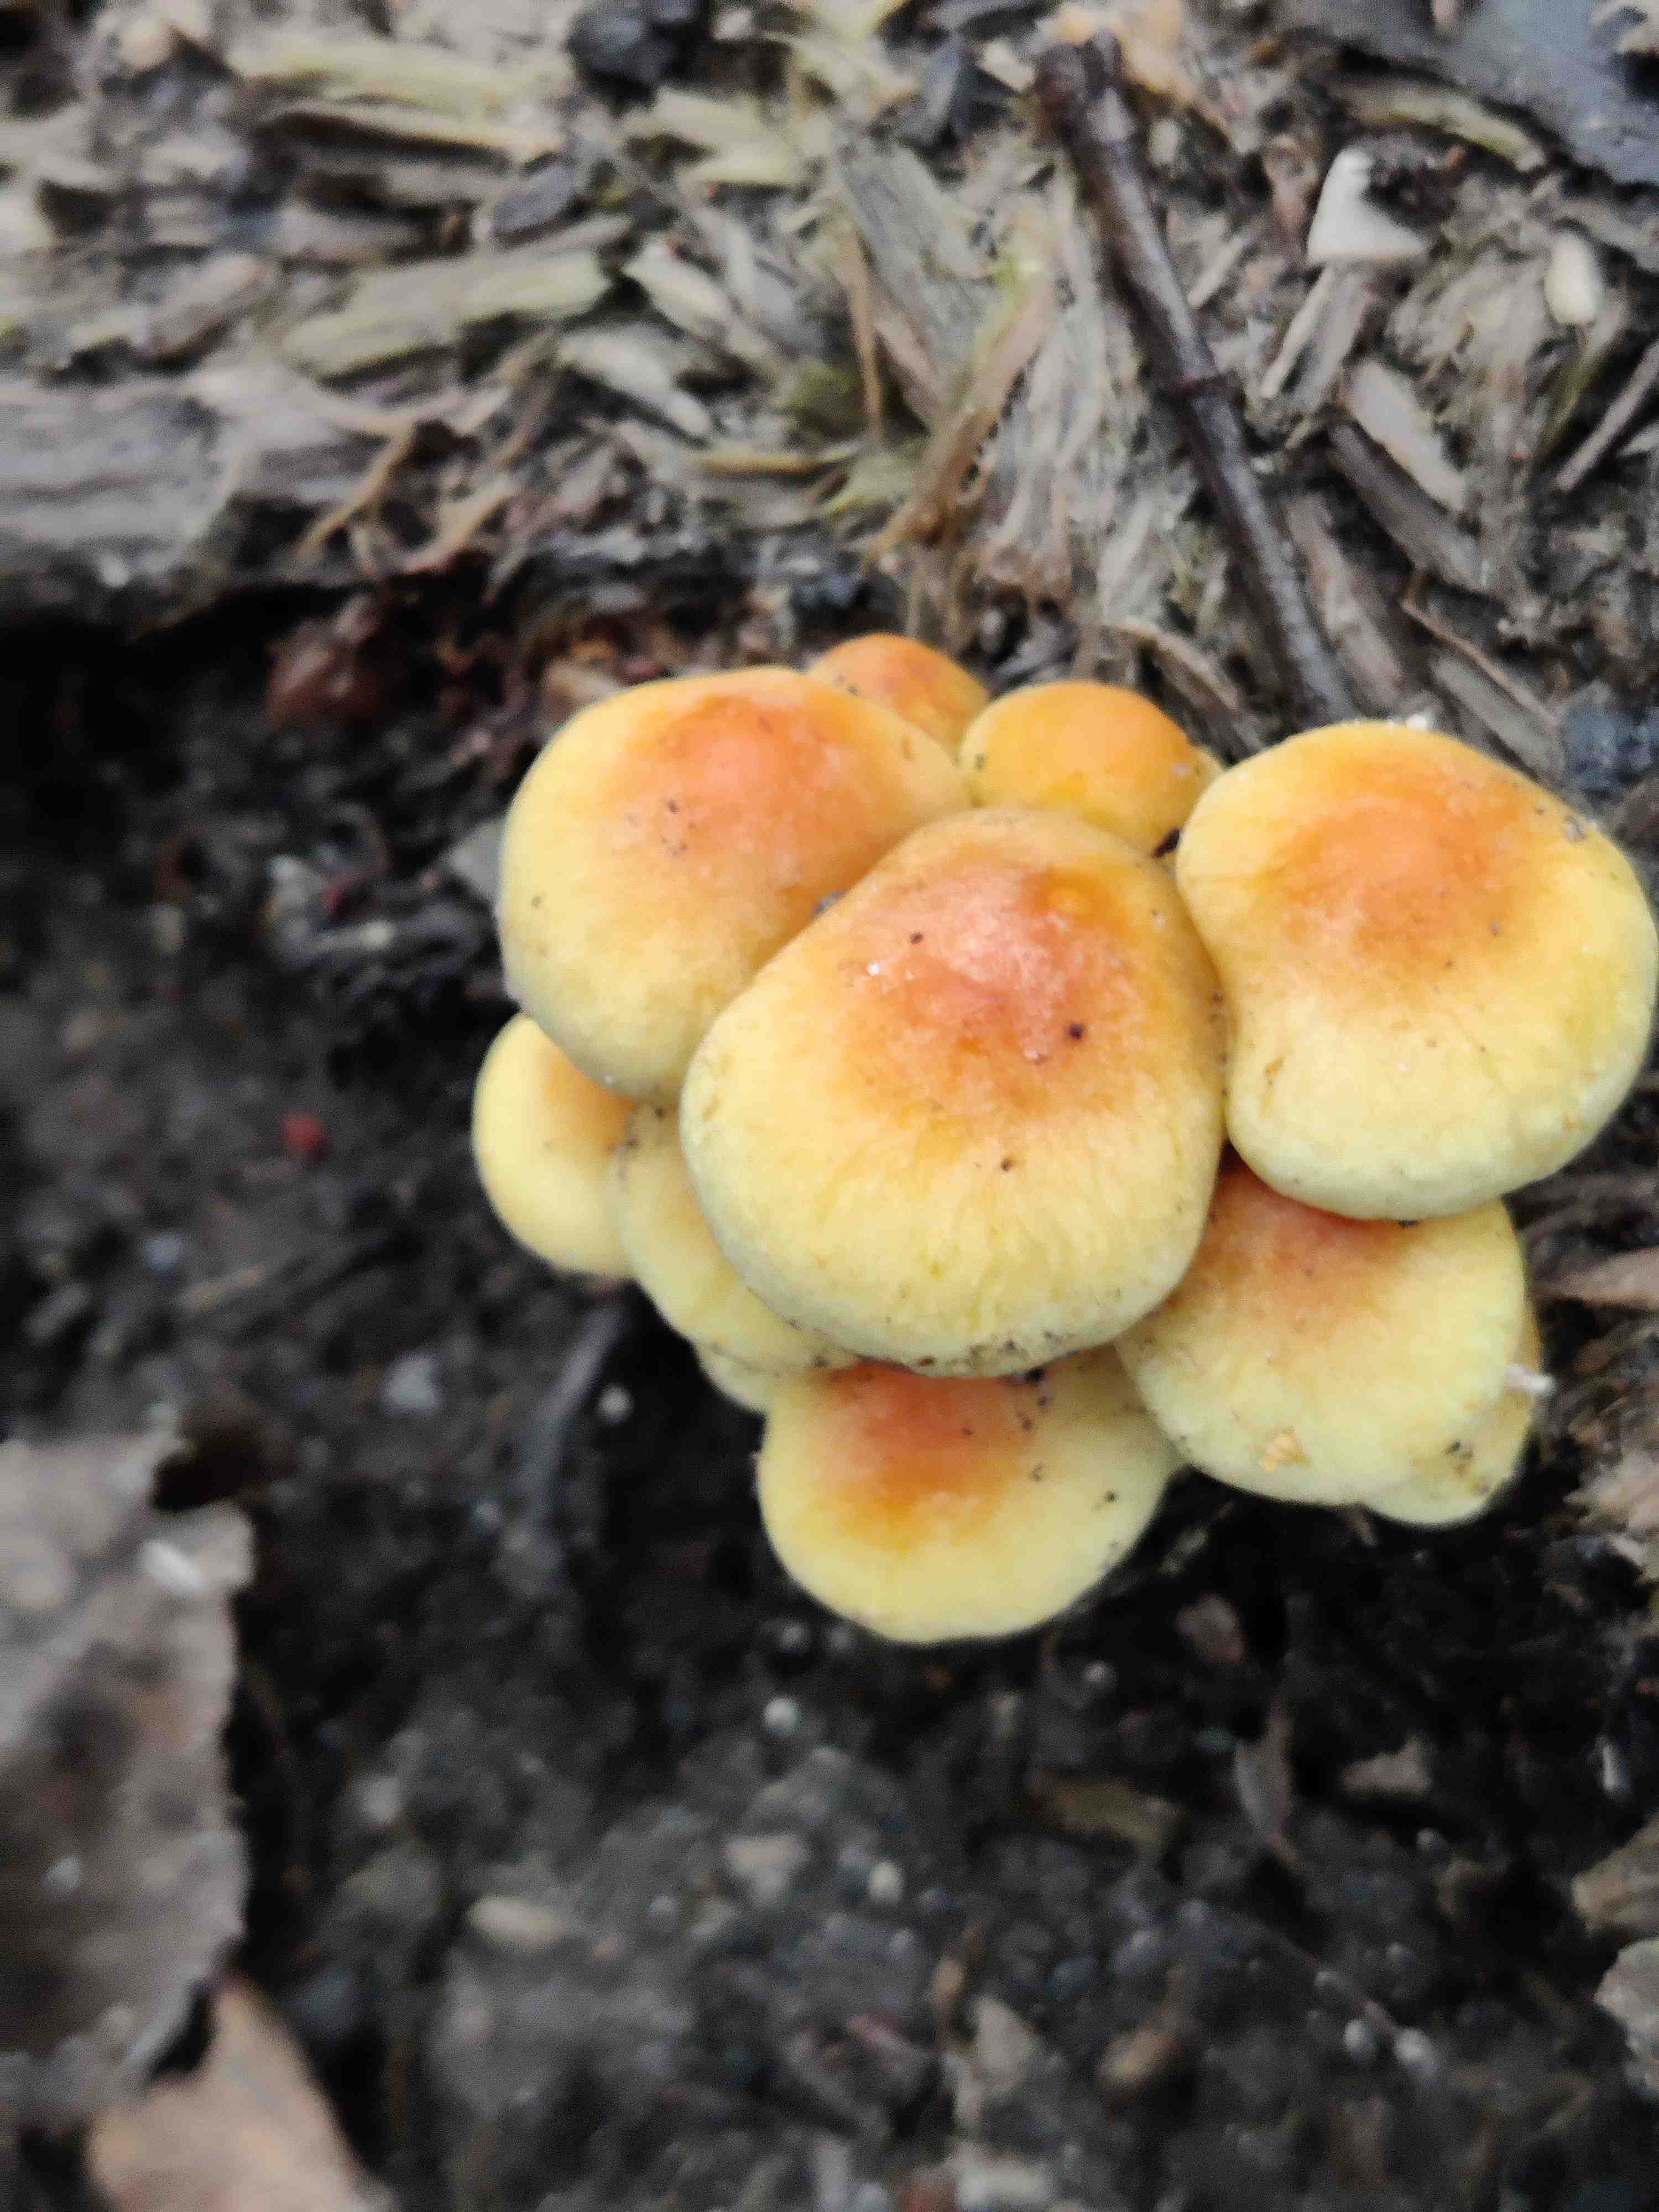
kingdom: Fungi
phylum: Basidiomycota
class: Agaricomycetes
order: Agaricales
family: Strophariaceae
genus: Hypholoma
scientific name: Hypholoma fasciculare
